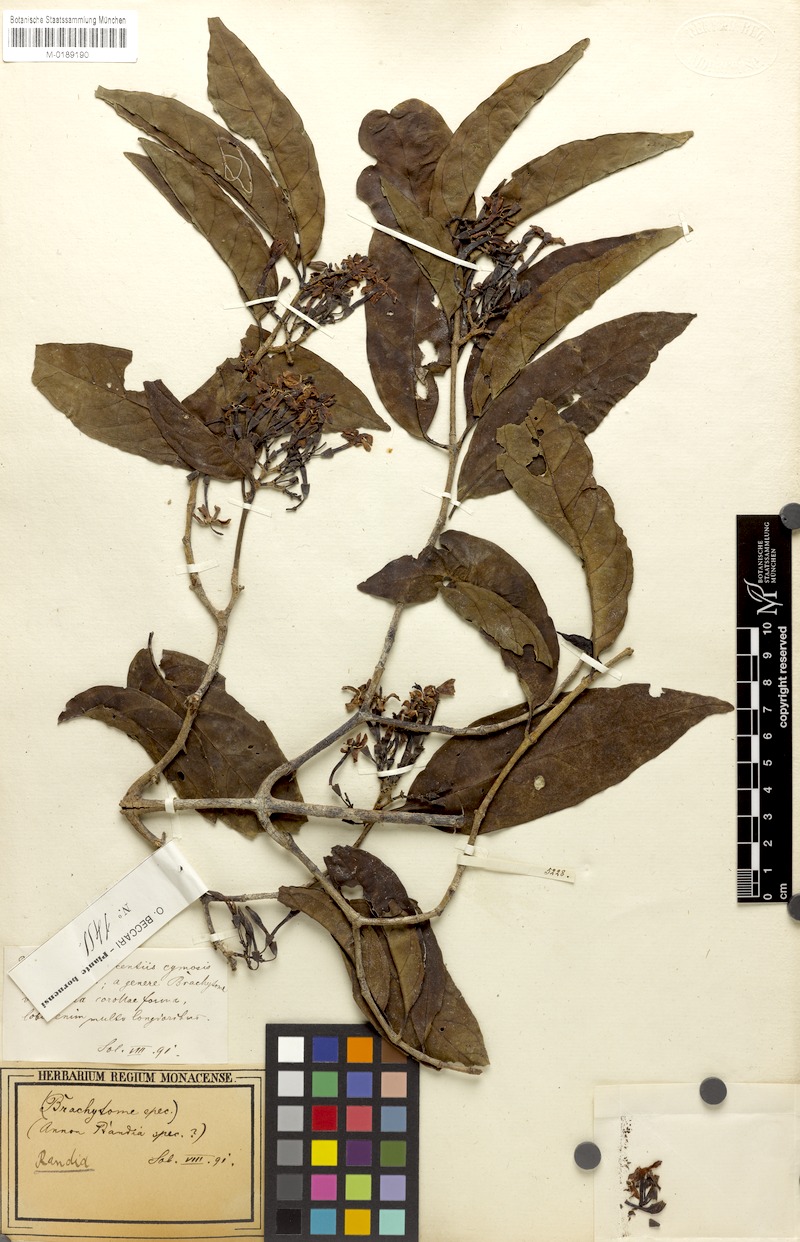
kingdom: Plantae
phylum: Tracheophyta
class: Magnoliopsida
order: Gentianales
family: Rubiaceae
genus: Randia
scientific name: Randia
